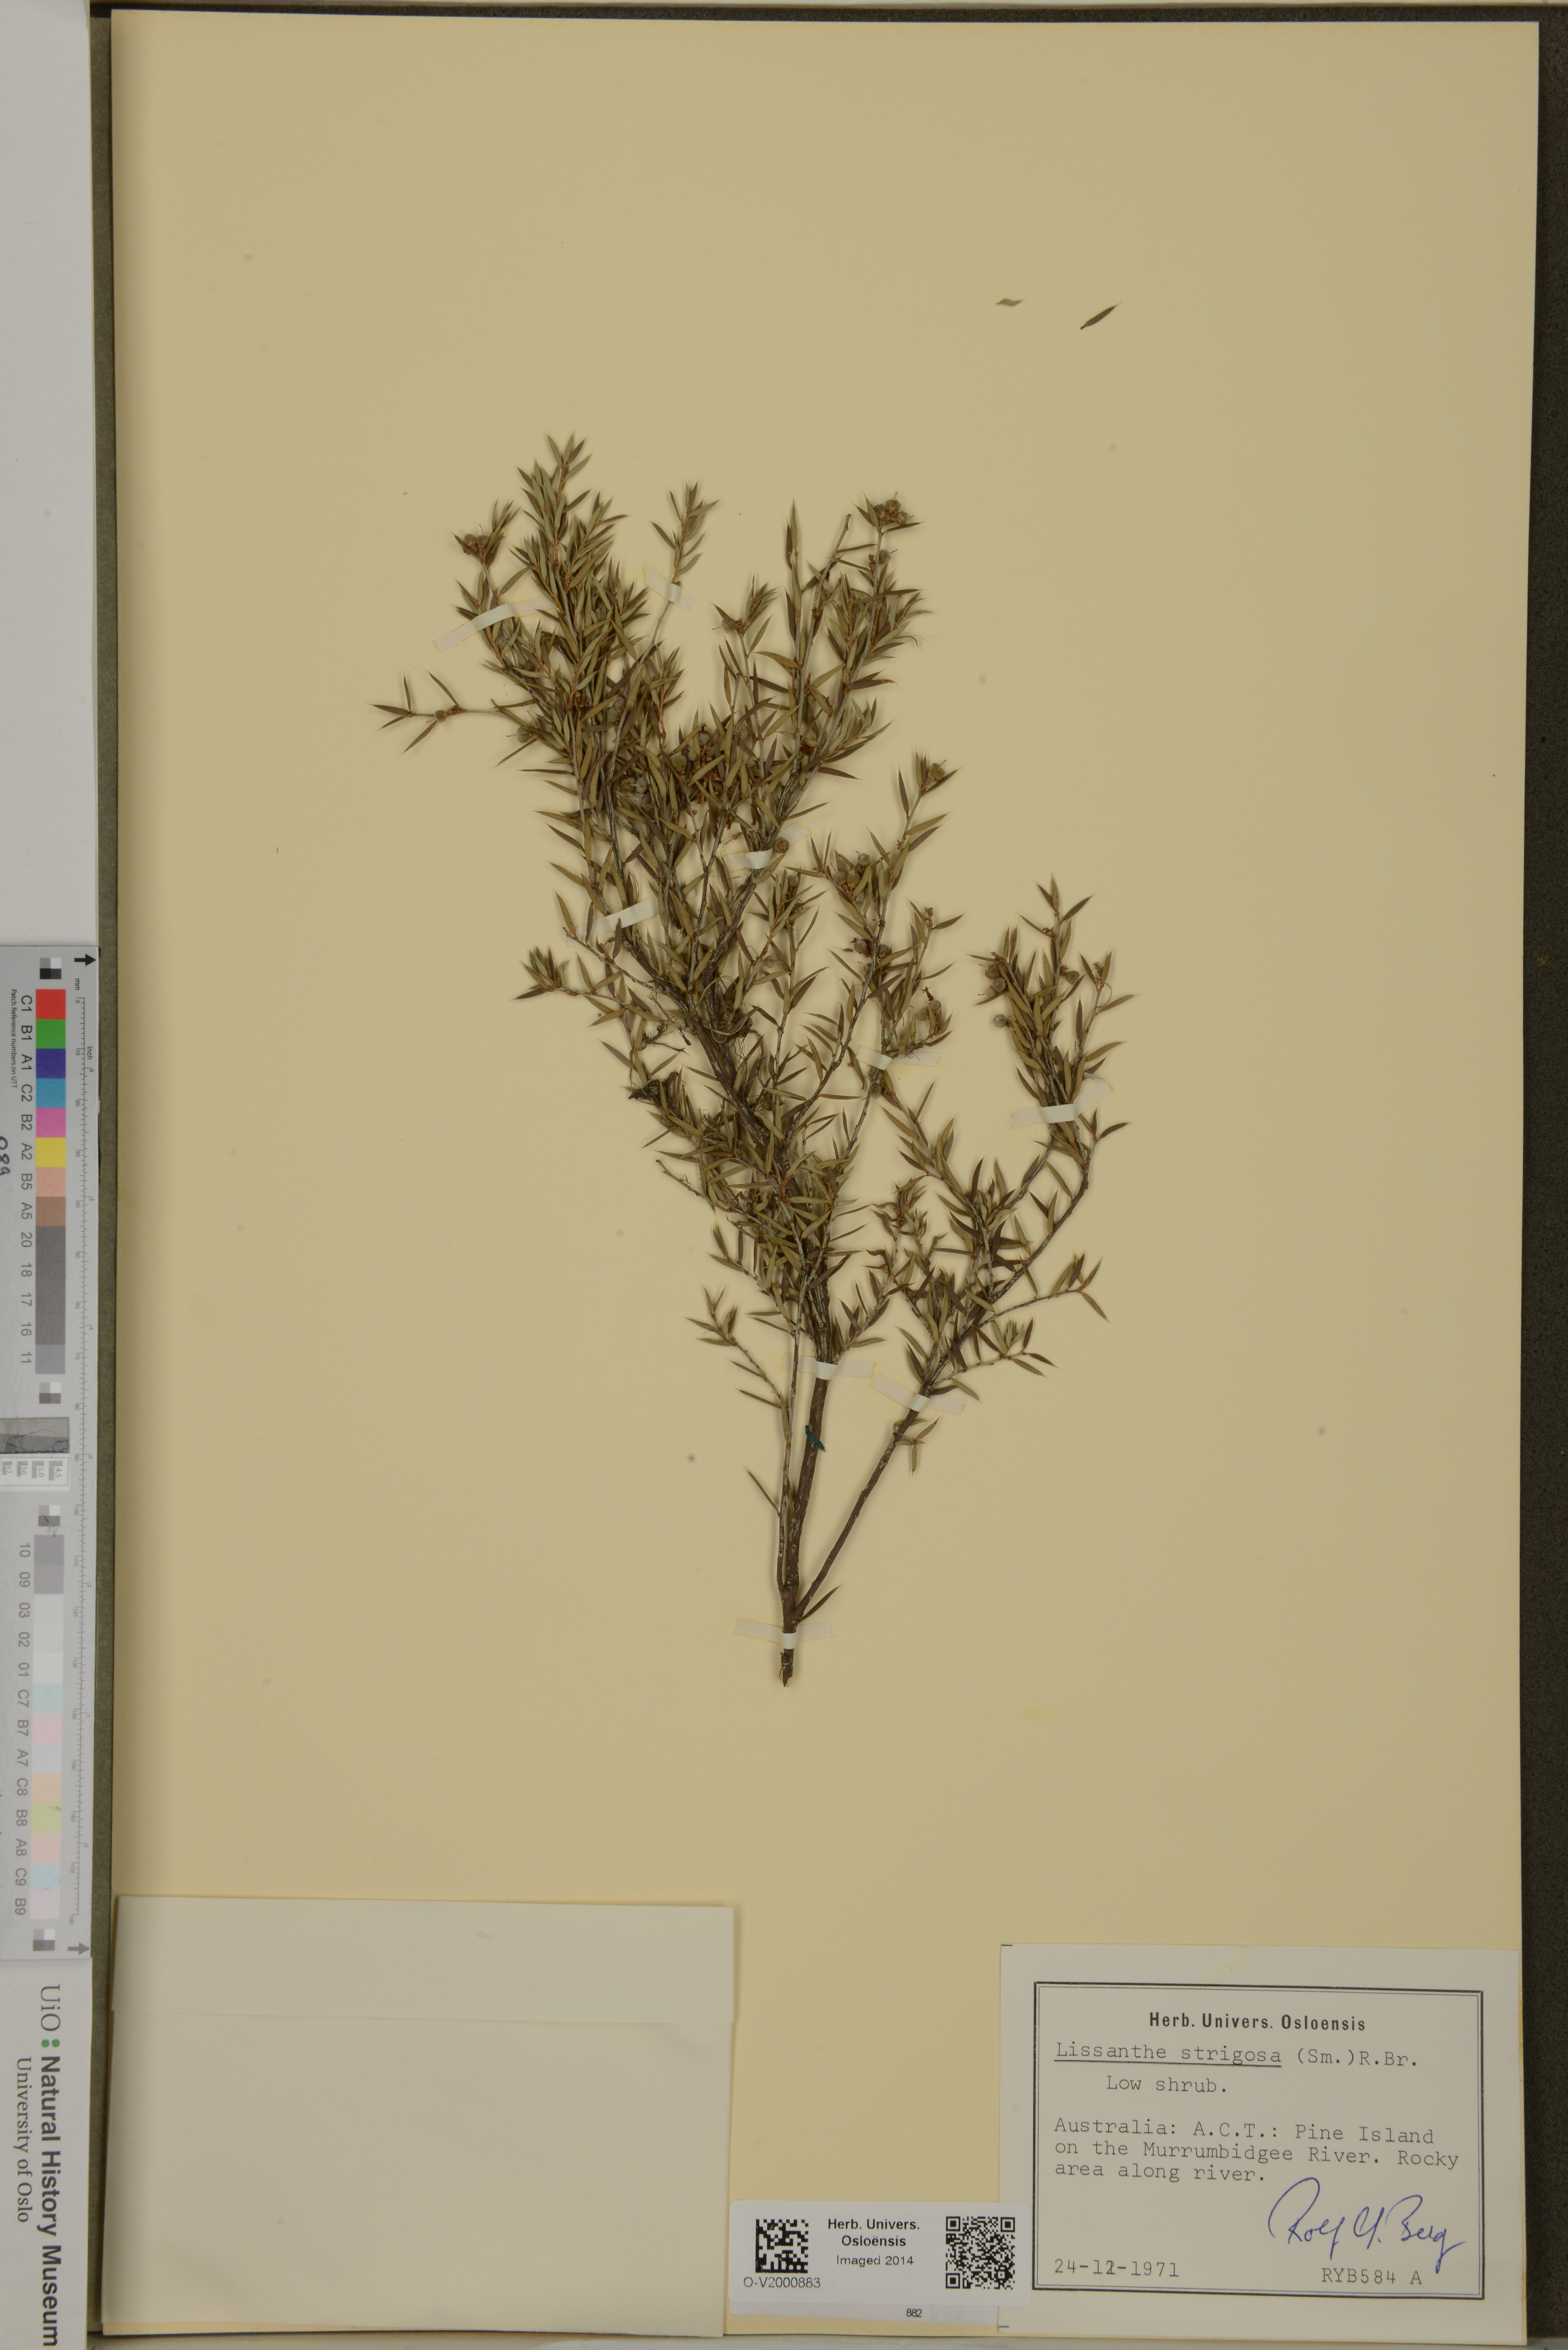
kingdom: Plantae
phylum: Tracheophyta
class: Magnoliopsida
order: Ericales
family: Ericaceae
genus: Lissanthe
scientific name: Lissanthe strigosa
